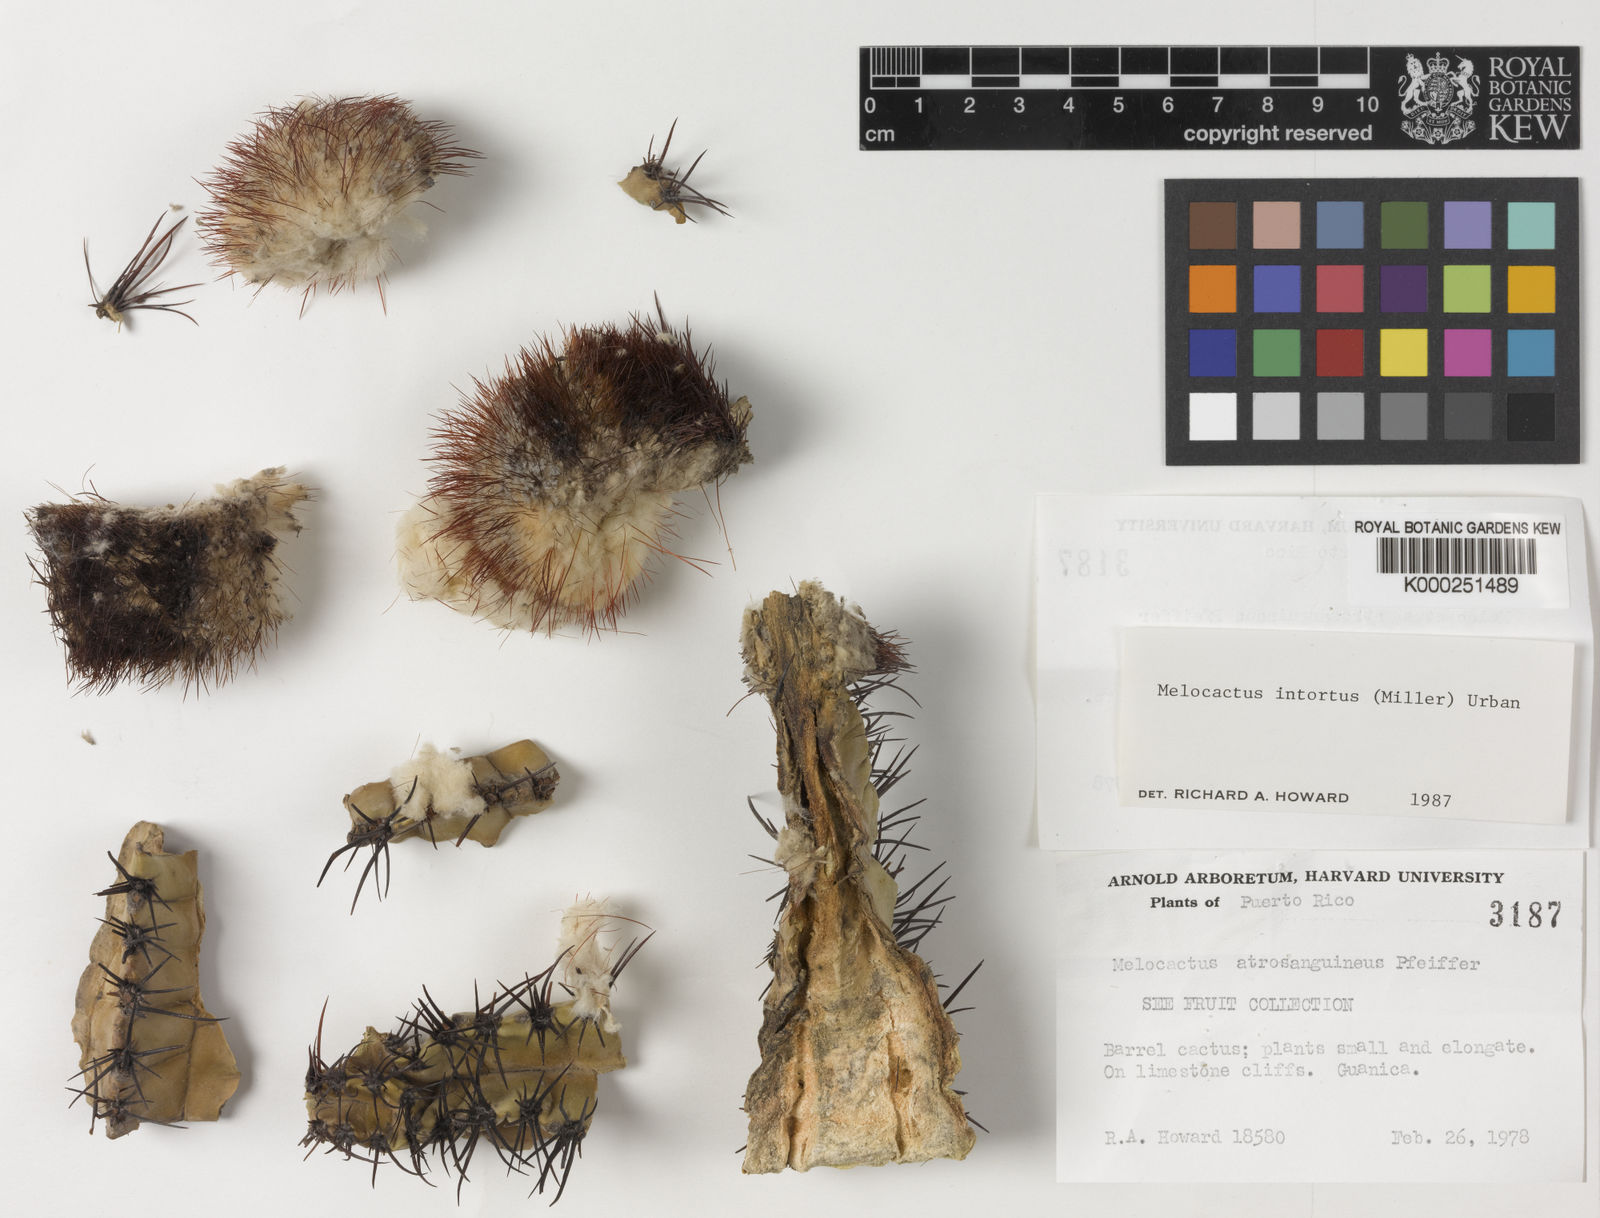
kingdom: Plantae
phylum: Tracheophyta
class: Magnoliopsida
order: Caryophyllales
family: Cactaceae
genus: Melocactus
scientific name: Melocactus intortus
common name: Barrel cactus
